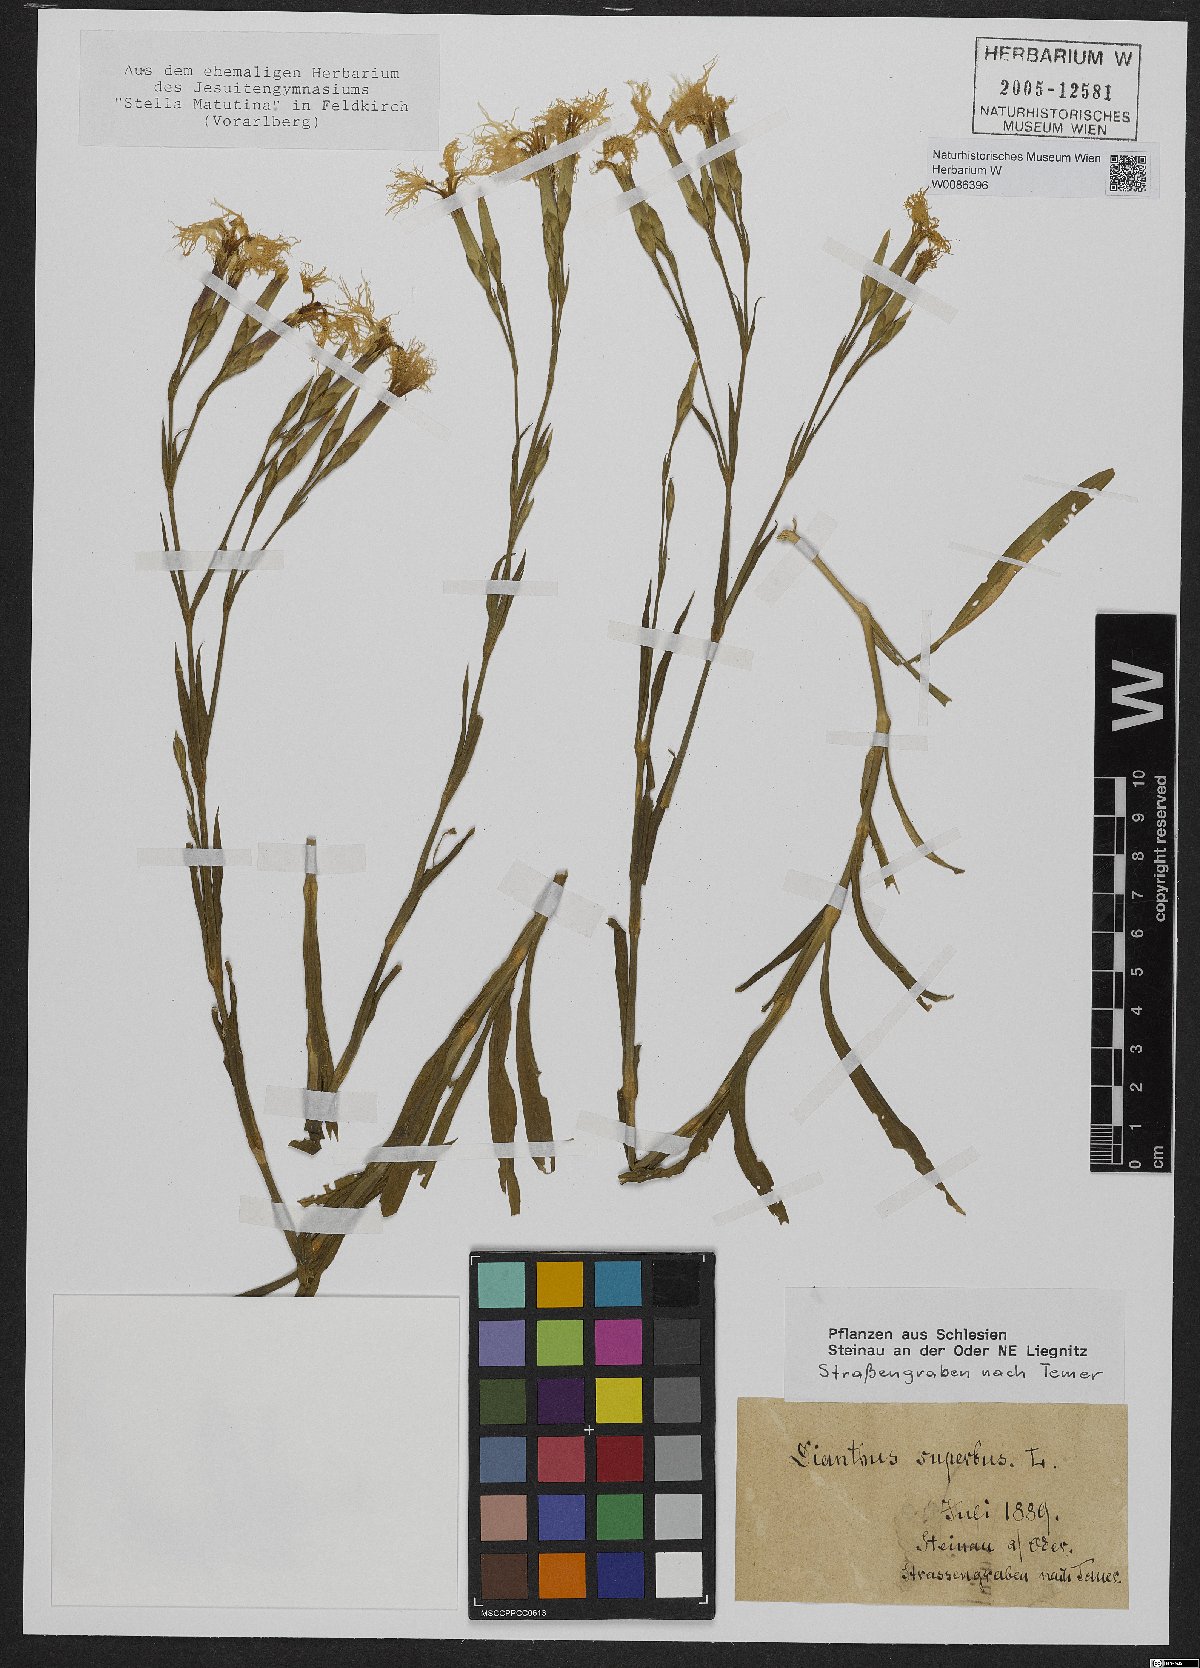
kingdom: Plantae
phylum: Tracheophyta
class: Magnoliopsida
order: Caryophyllales
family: Caryophyllaceae
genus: Dianthus
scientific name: Dianthus superbus
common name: Fringed pink
